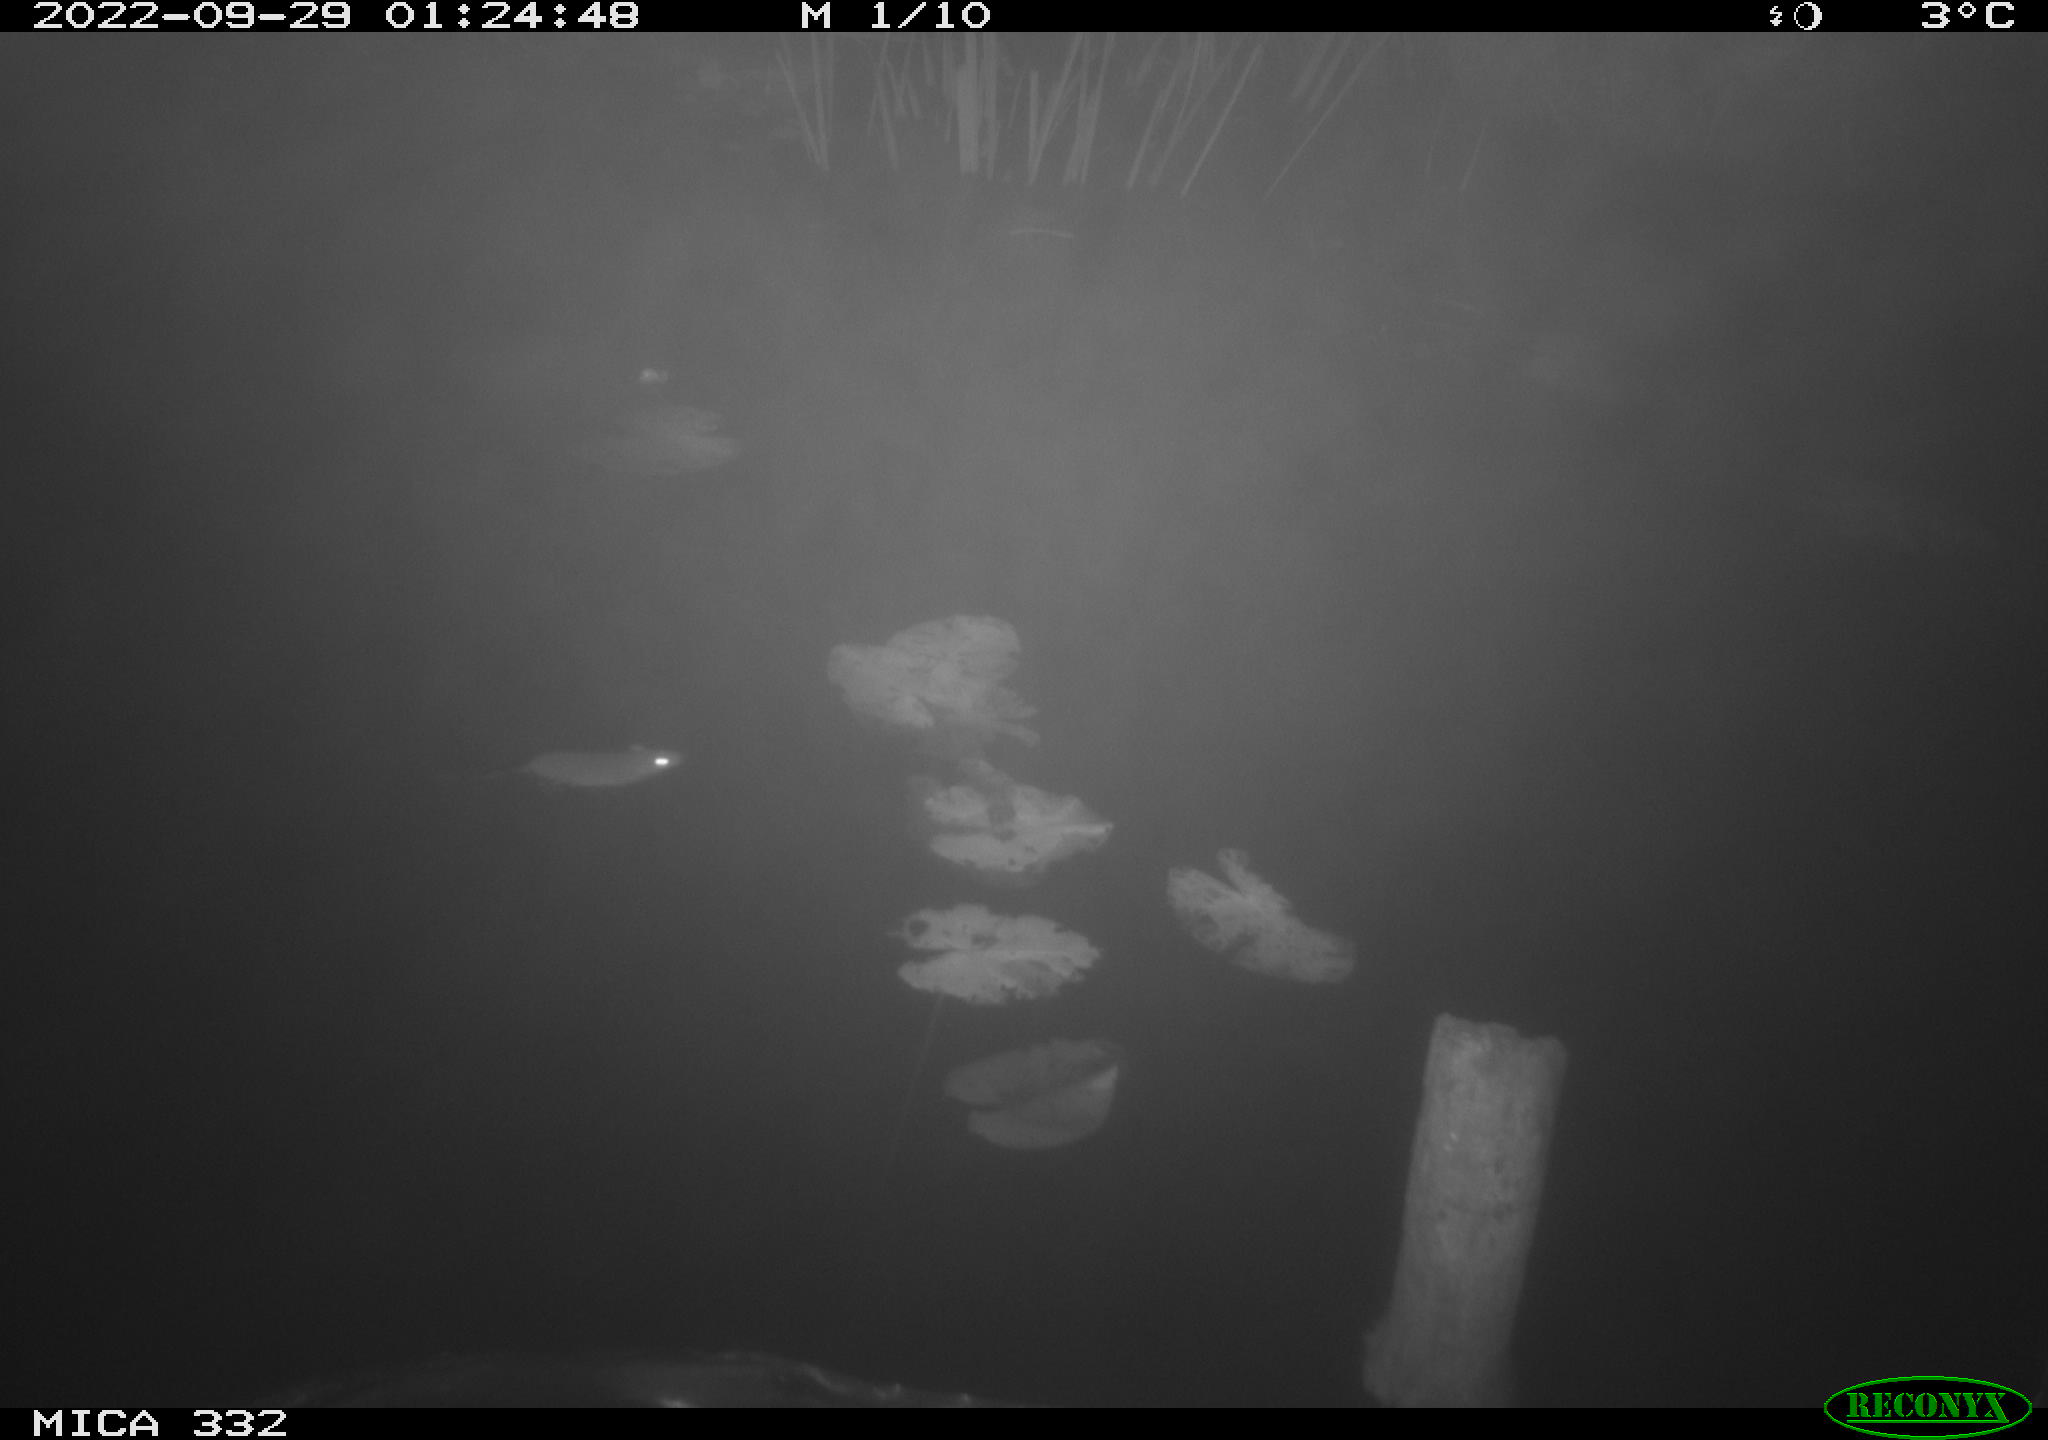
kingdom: Animalia
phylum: Chordata
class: Mammalia
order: Rodentia
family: Muridae
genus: Rattus
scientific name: Rattus norvegicus
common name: Brown rat
